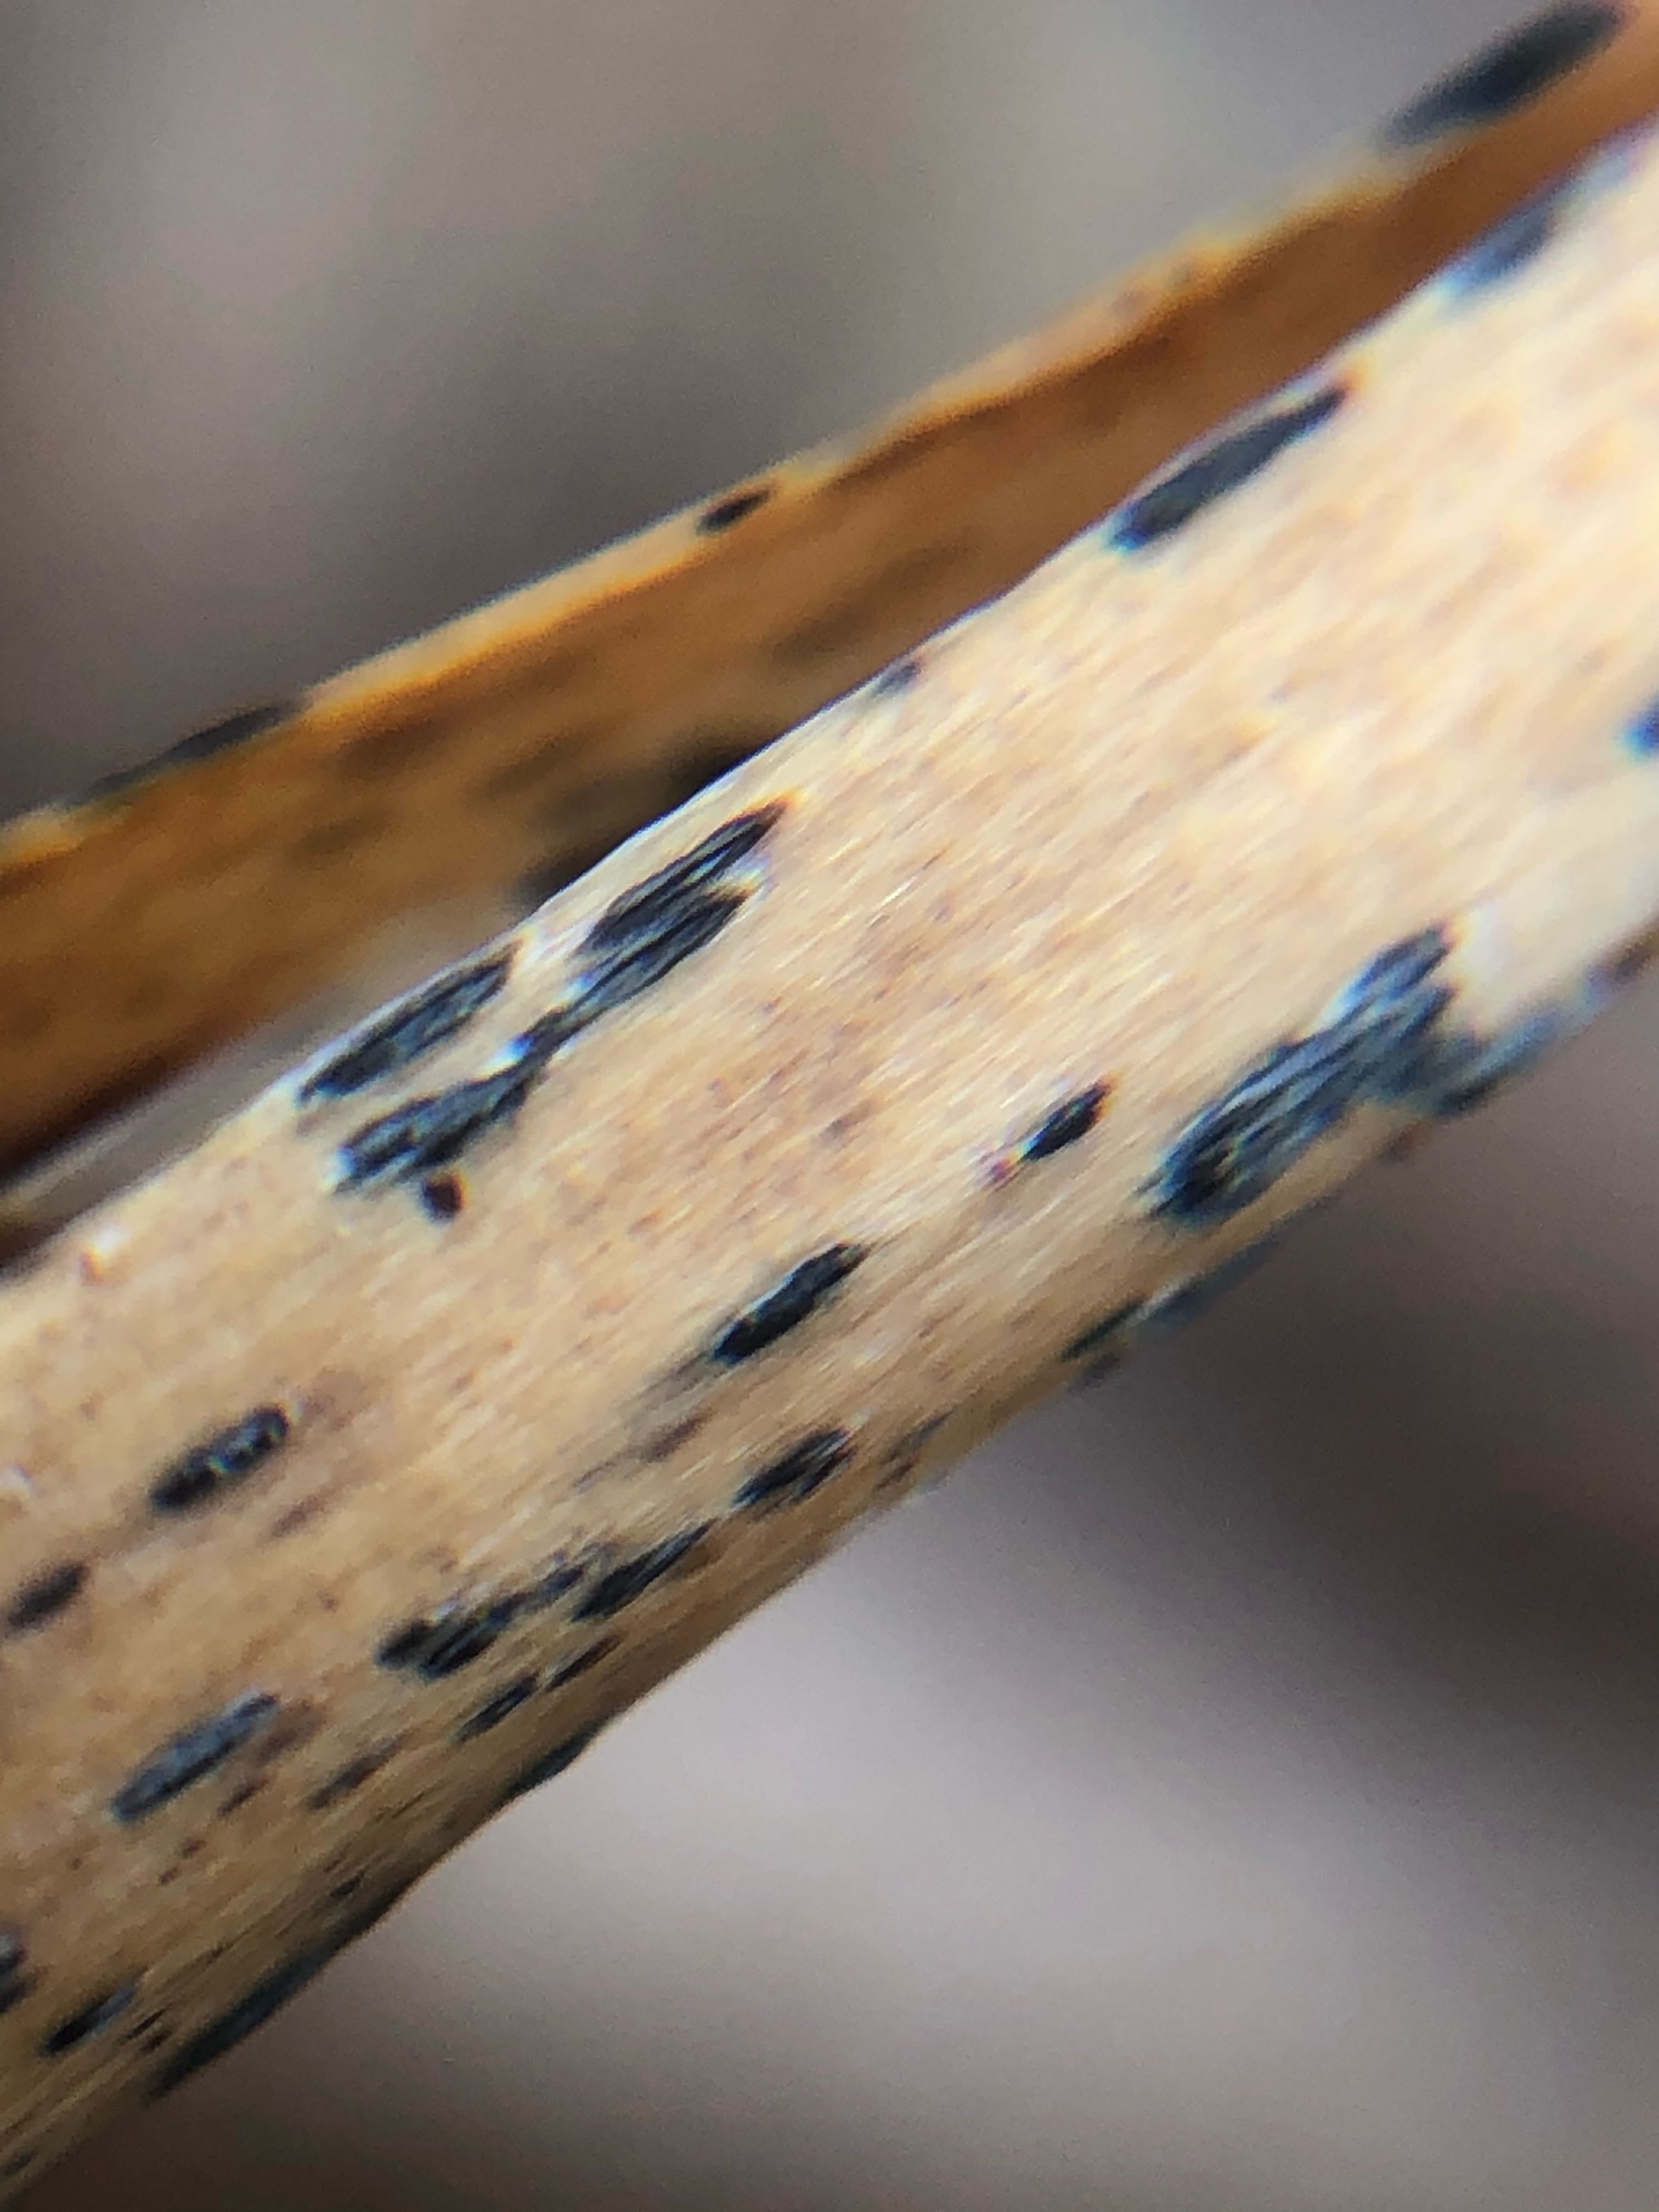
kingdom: Fungi
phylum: Ascomycota
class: Dothideomycetes
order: Pleosporales
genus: Rhopographus
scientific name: Rhopographus filicinus
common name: Bracken map
